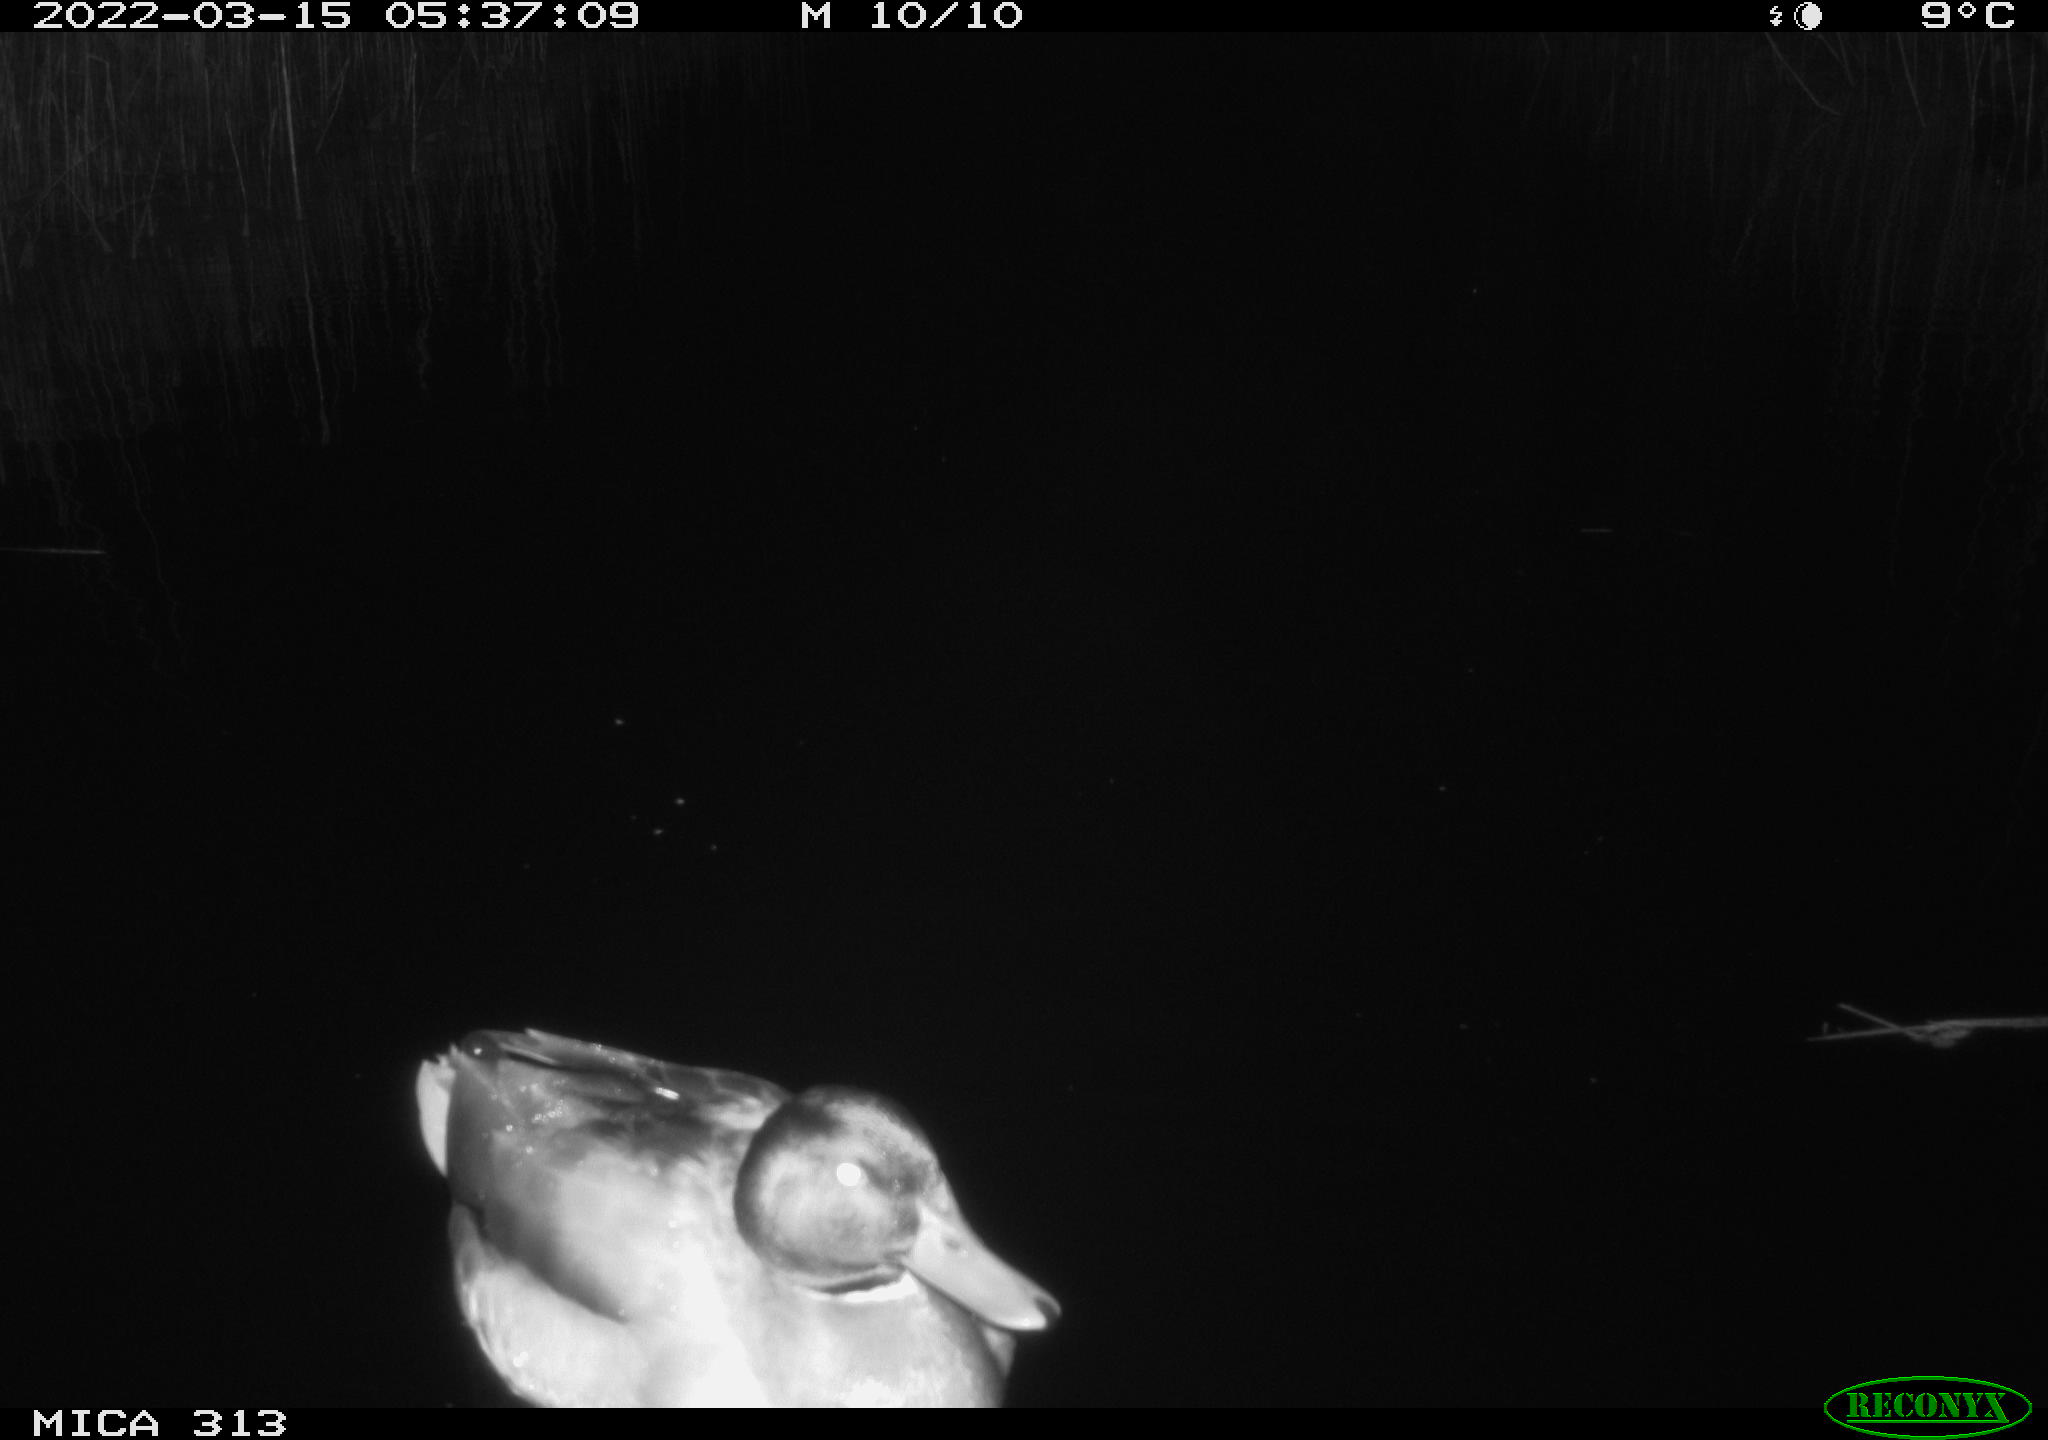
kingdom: Animalia
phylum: Chordata
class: Aves
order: Anseriformes
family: Anatidae
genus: Anas
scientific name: Anas platyrhynchos
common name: Mallard
